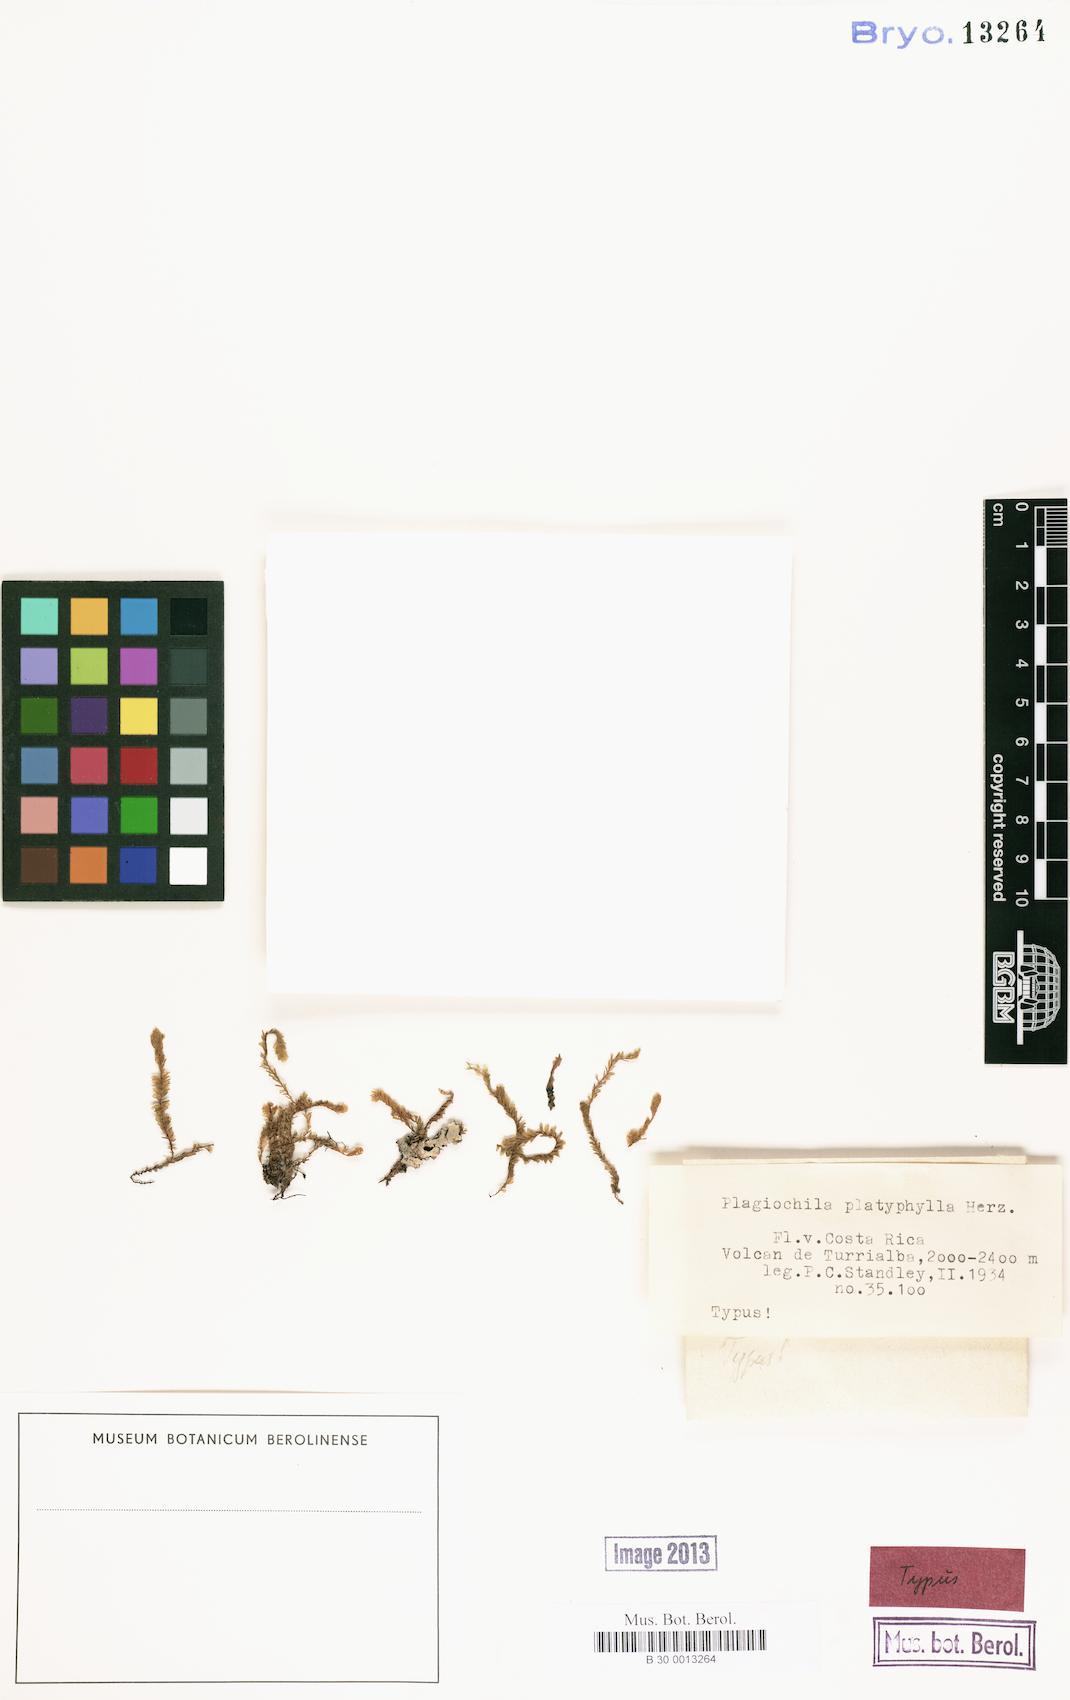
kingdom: Plantae
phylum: Marchantiophyta
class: Jungermanniopsida
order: Jungermanniales
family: Plagiochilaceae
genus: Plagiochila
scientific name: Plagiochila platyphylla
